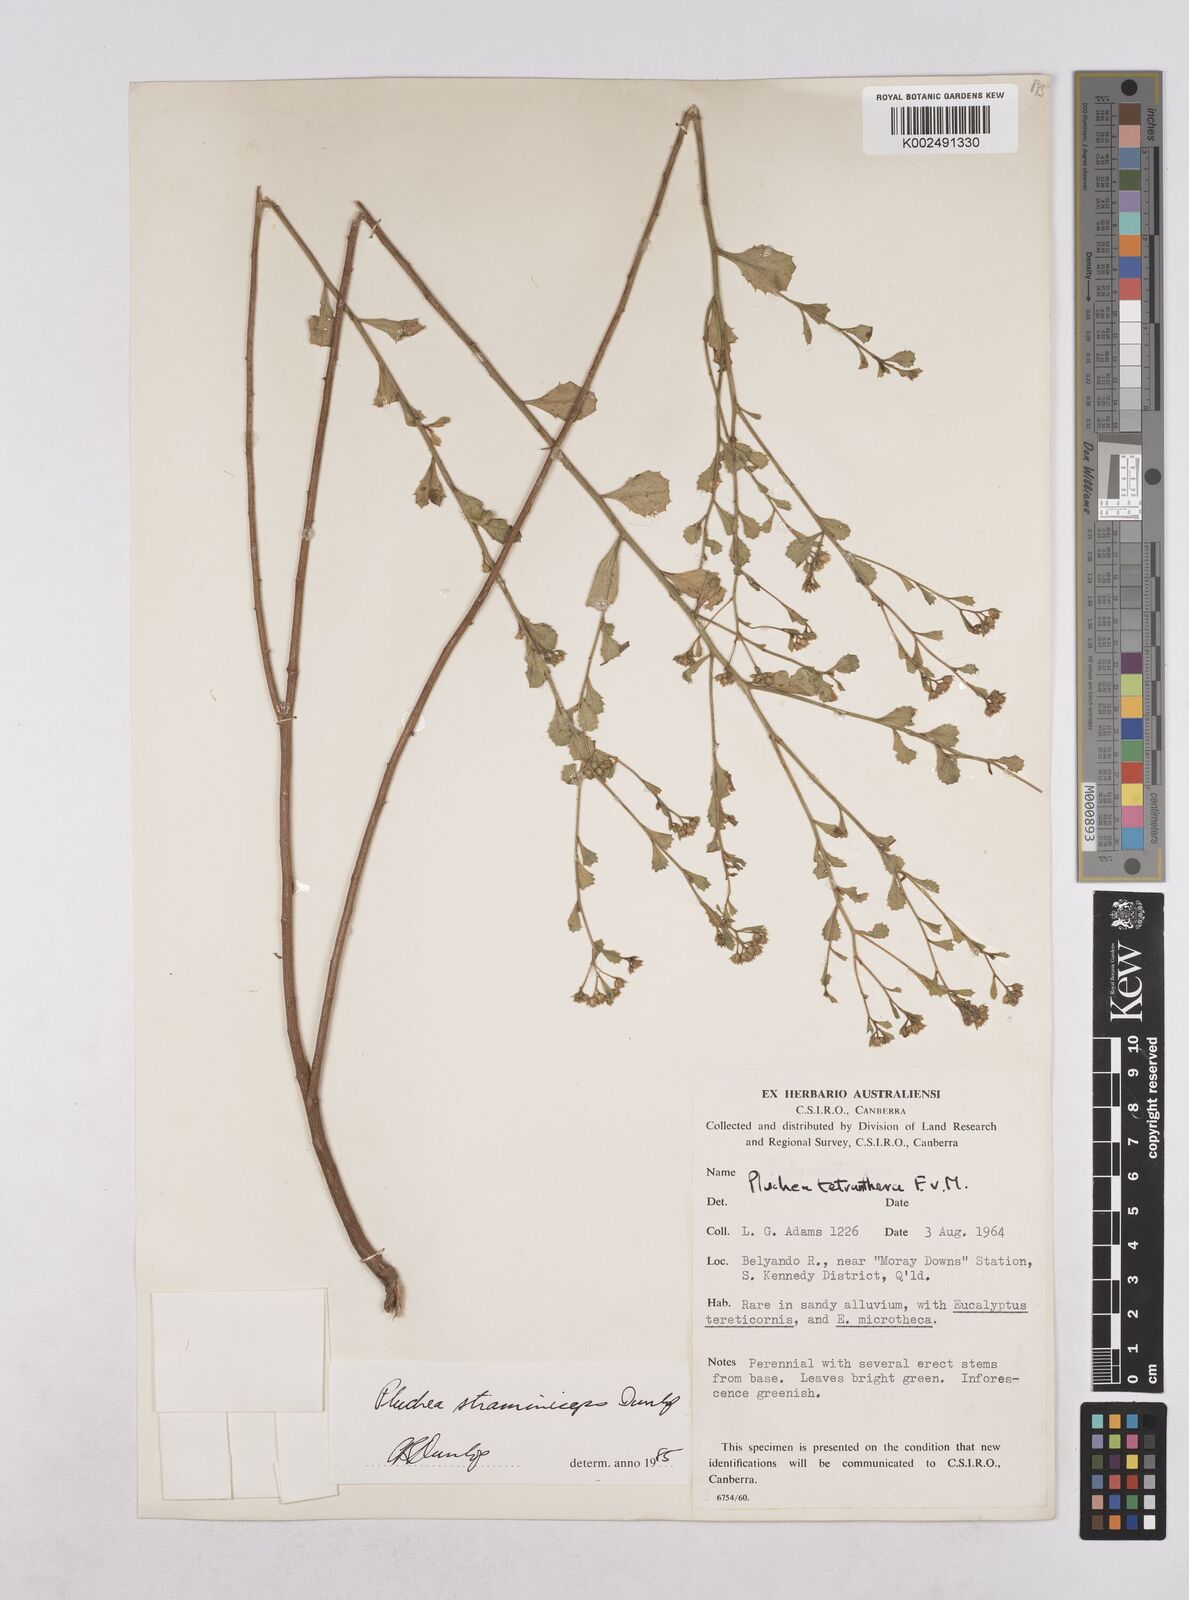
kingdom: Plantae
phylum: Tracheophyta
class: Magnoliopsida
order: Asterales
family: Asteraceae
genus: Pluchea
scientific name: Pluchea dunlopii
